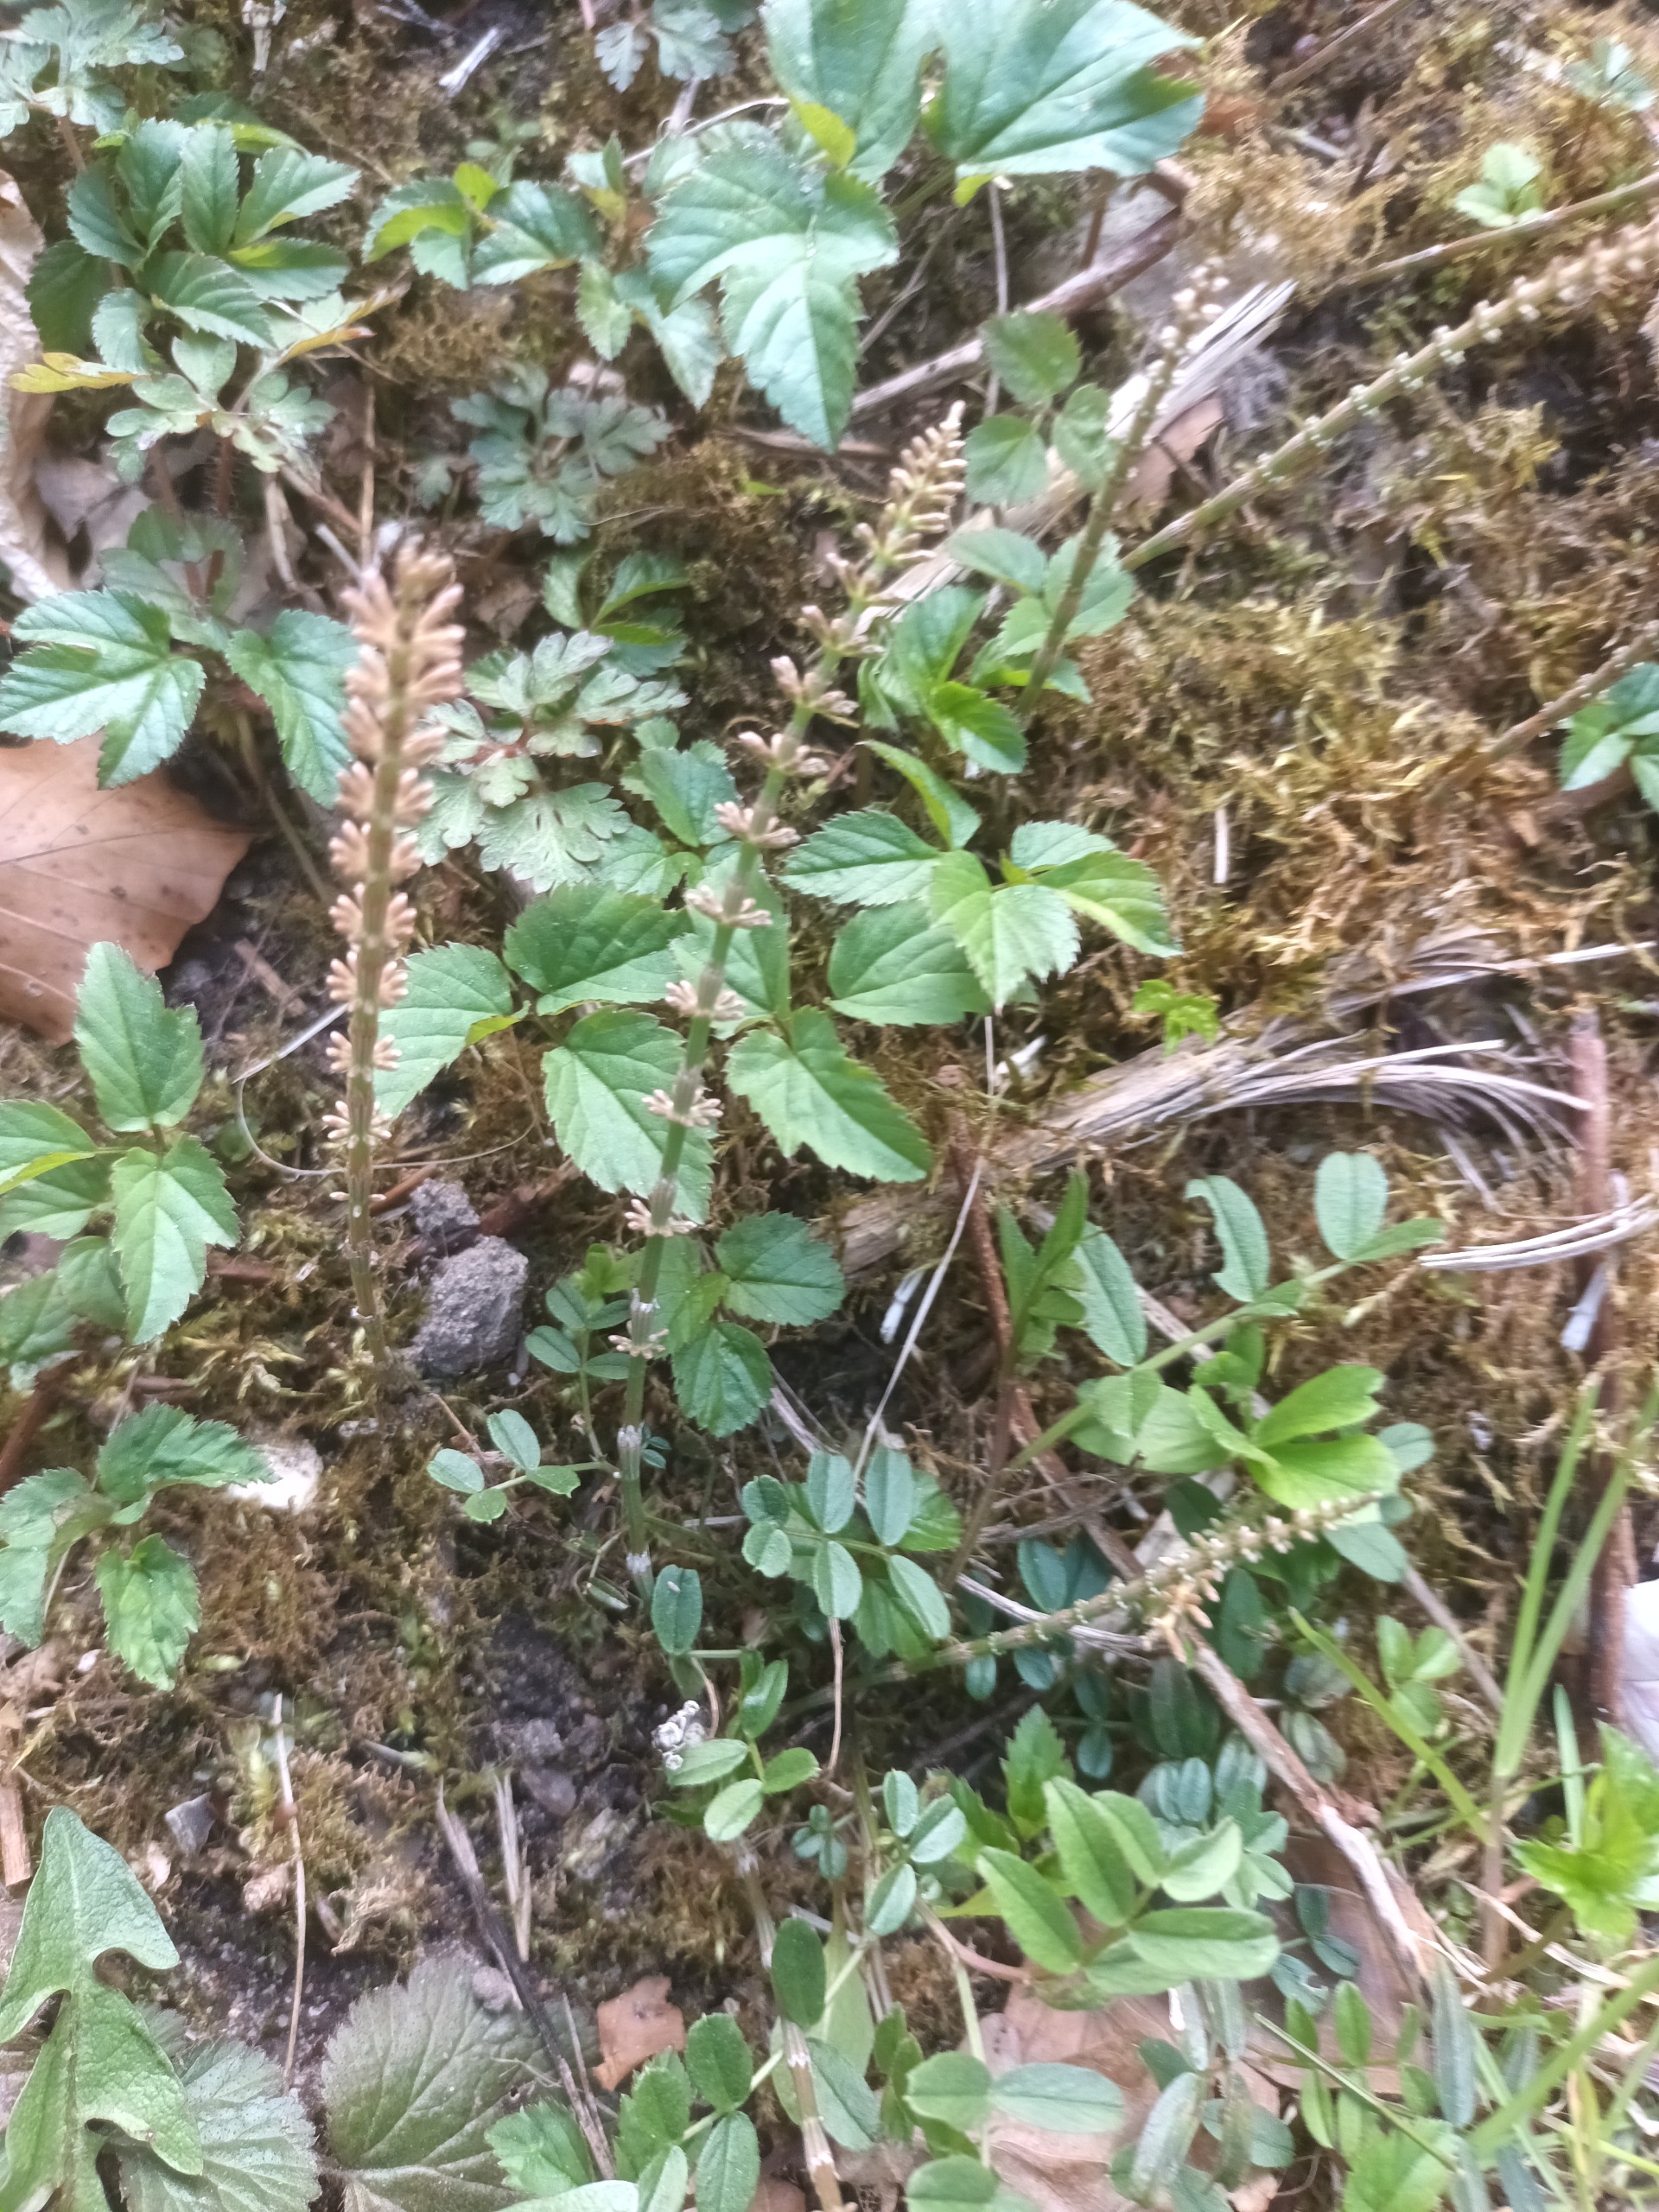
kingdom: Plantae
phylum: Tracheophyta
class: Polypodiopsida
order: Equisetales
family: Equisetaceae
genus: Equisetum
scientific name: Equisetum pratense
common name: Lund-padderok
